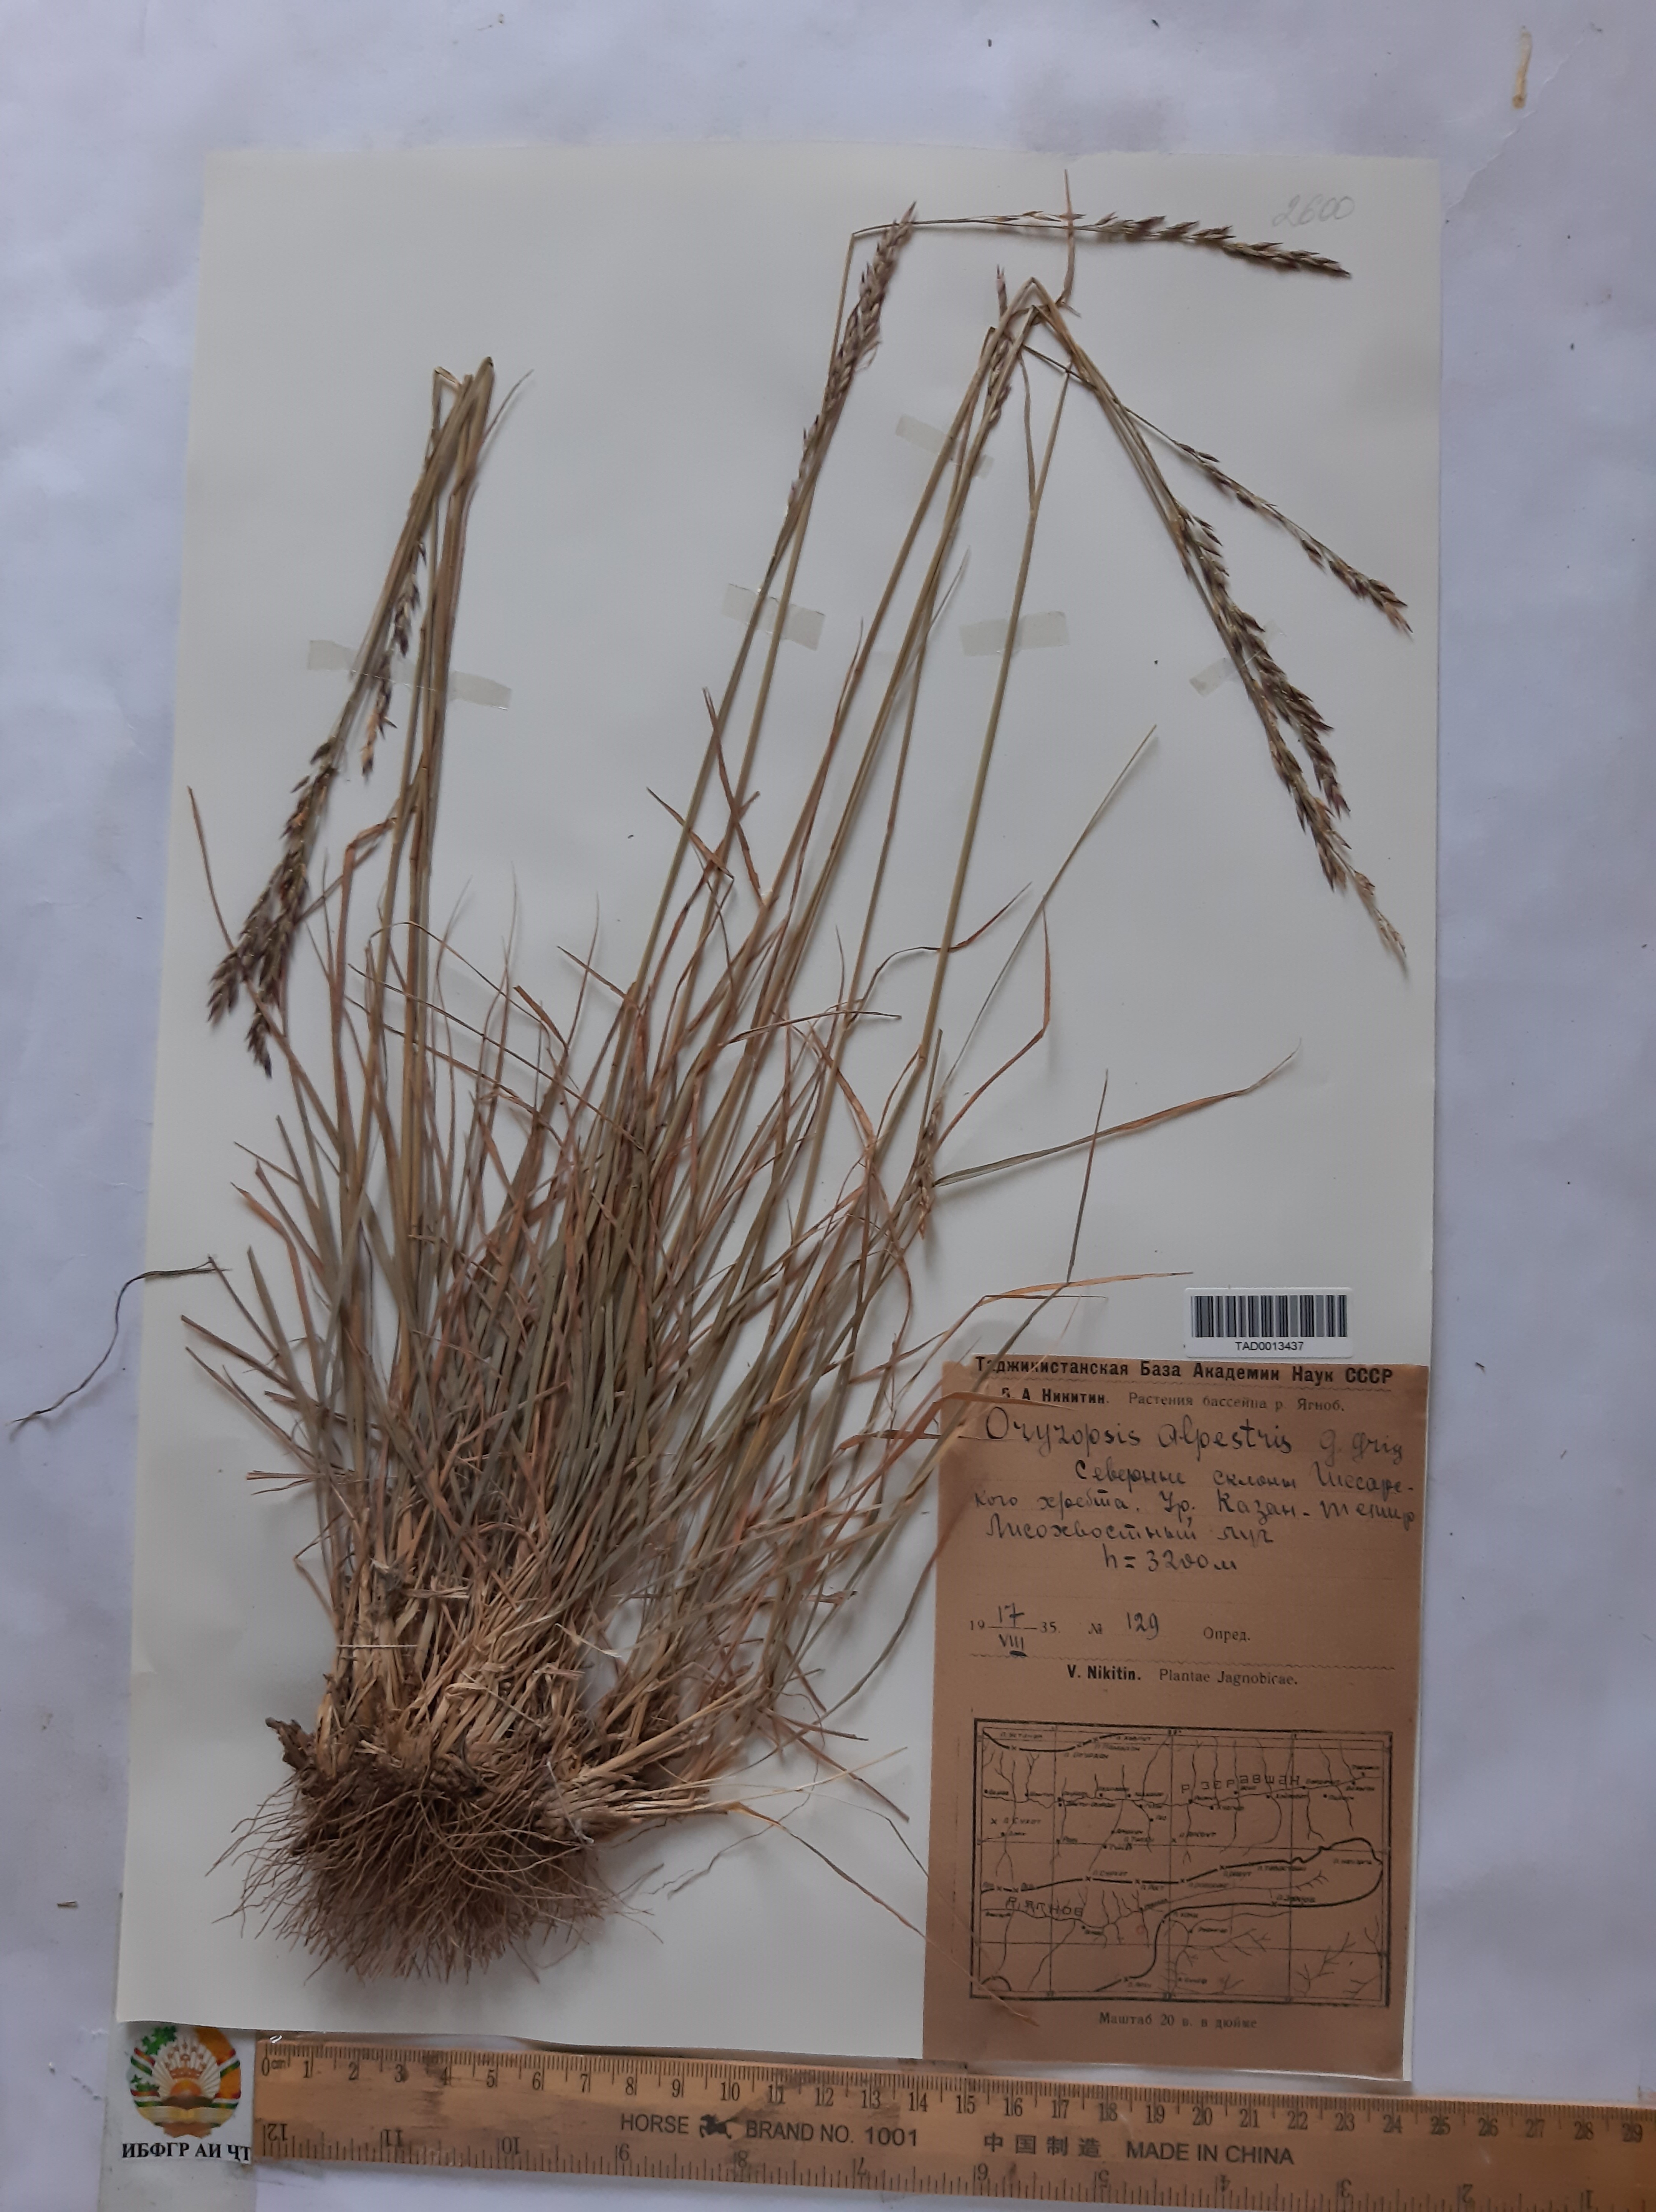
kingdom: Plantae
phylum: Tracheophyta
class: Liliopsida
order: Poales
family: Poaceae
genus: Piptatherum
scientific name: Piptatherum alpestre
